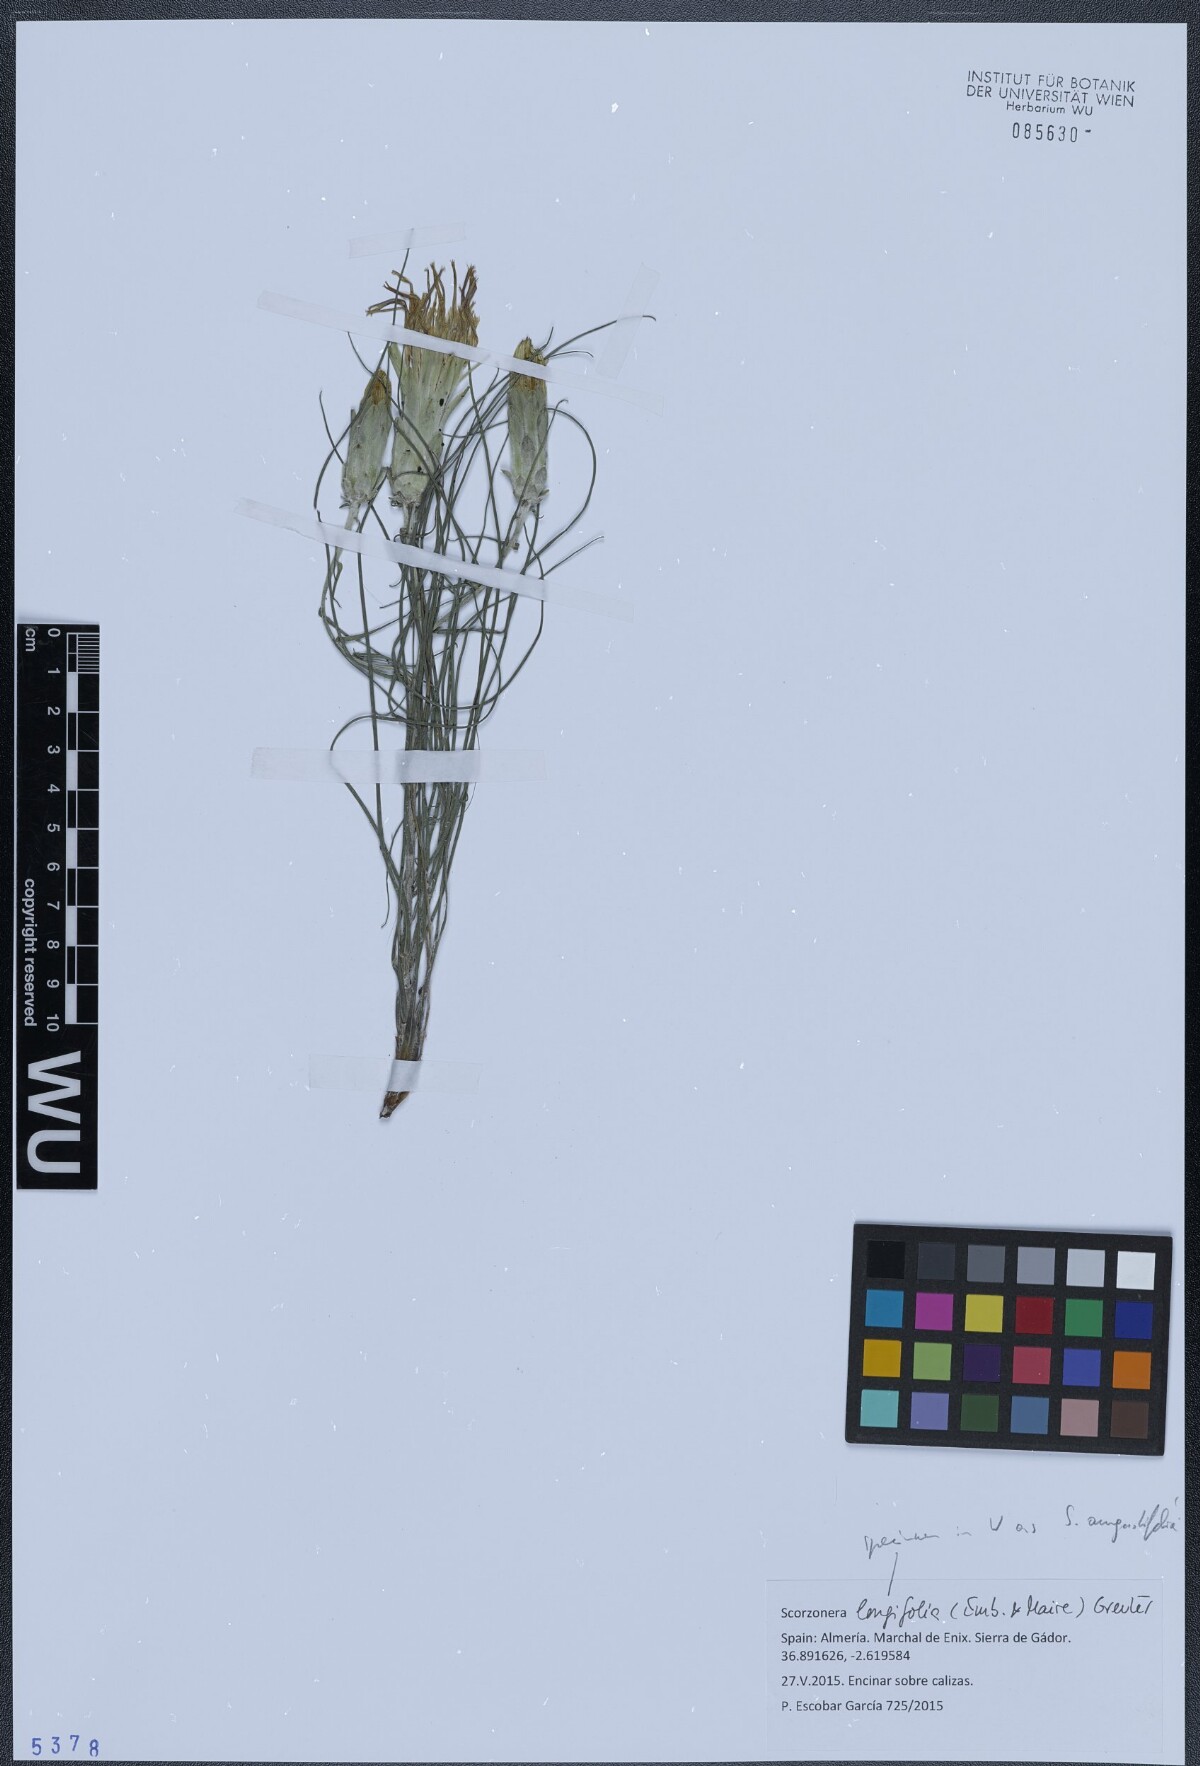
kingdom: Plantae
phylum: Tracheophyta
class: Magnoliopsida
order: Asterales
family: Asteraceae
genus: Gelasia
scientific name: Gelasia caespitosa
